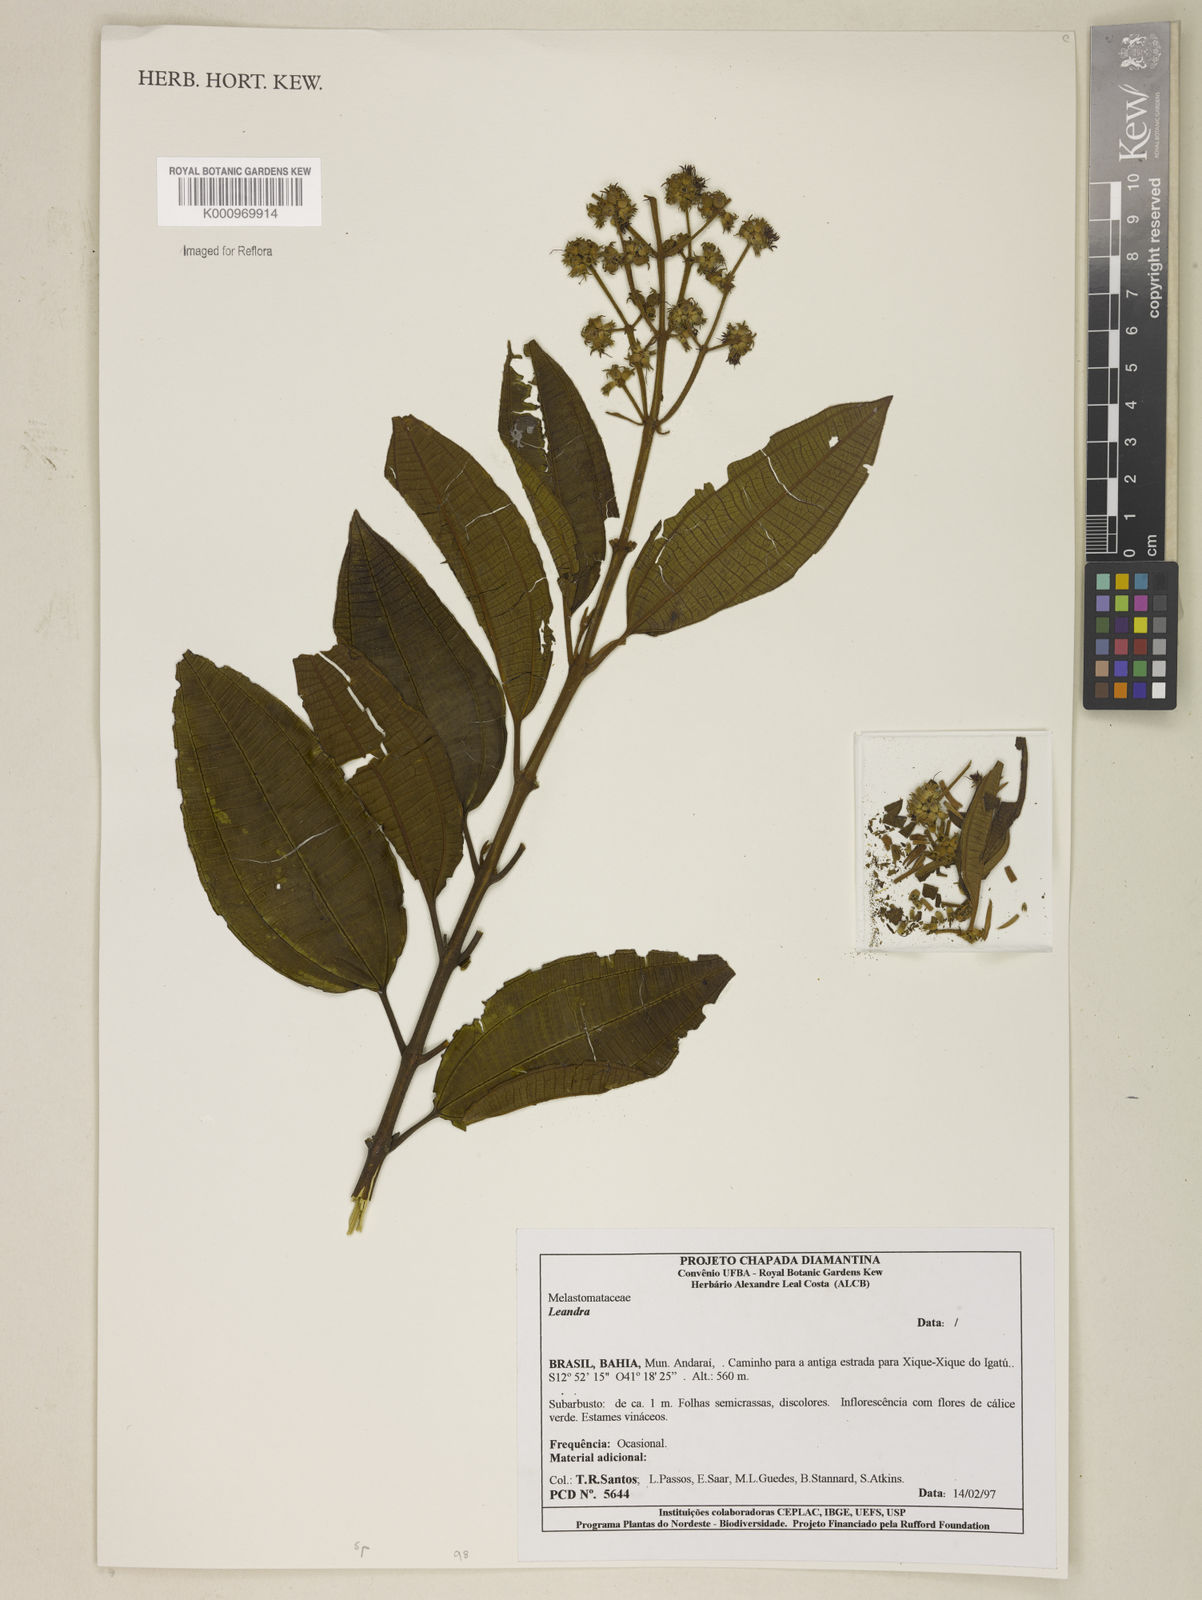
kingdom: Plantae
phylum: Tracheophyta
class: Magnoliopsida
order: Myrtales
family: Melastomataceae
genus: Miconia
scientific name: Miconia
